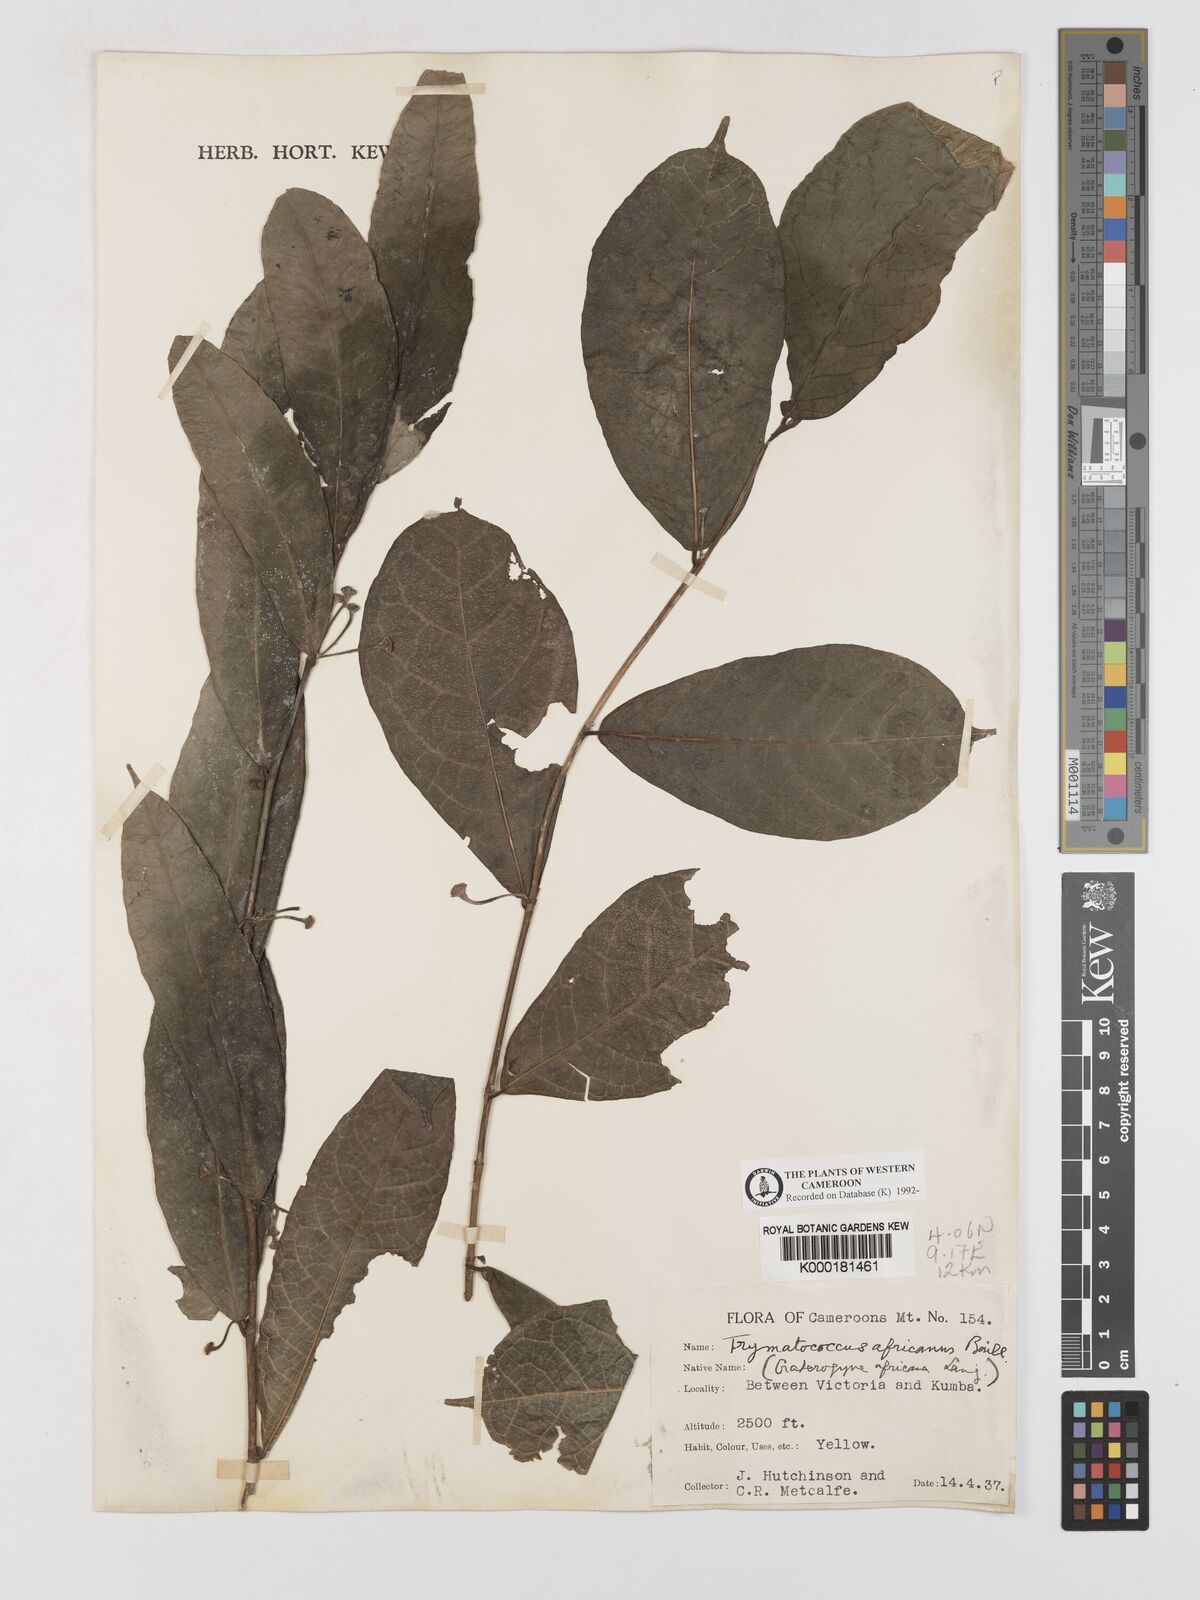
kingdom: Plantae
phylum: Tracheophyta
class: Magnoliopsida
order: Rosales
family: Moraceae
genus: Dorstenia
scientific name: Dorstenia africana
